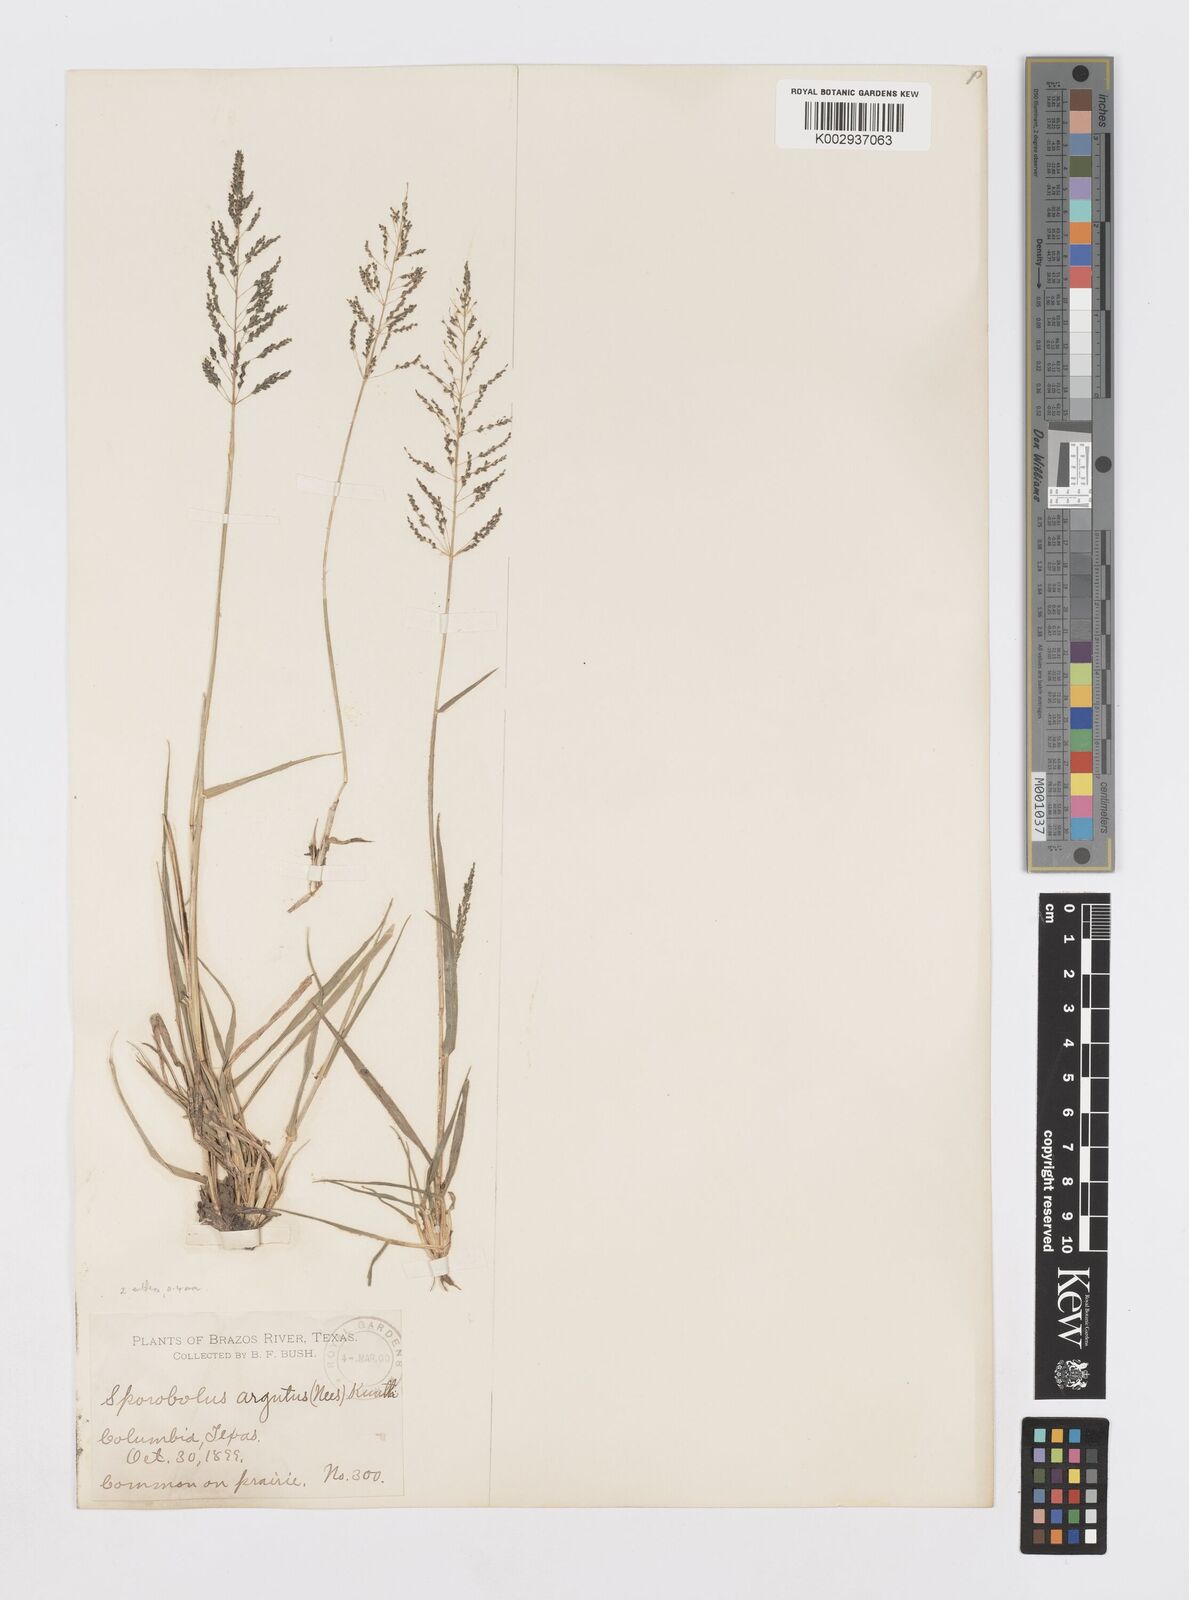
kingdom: Plantae
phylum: Tracheophyta
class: Liliopsida
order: Poales
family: Poaceae
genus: Sporobolus
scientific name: Sporobolus pyramidatus
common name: Whorled dropseed
